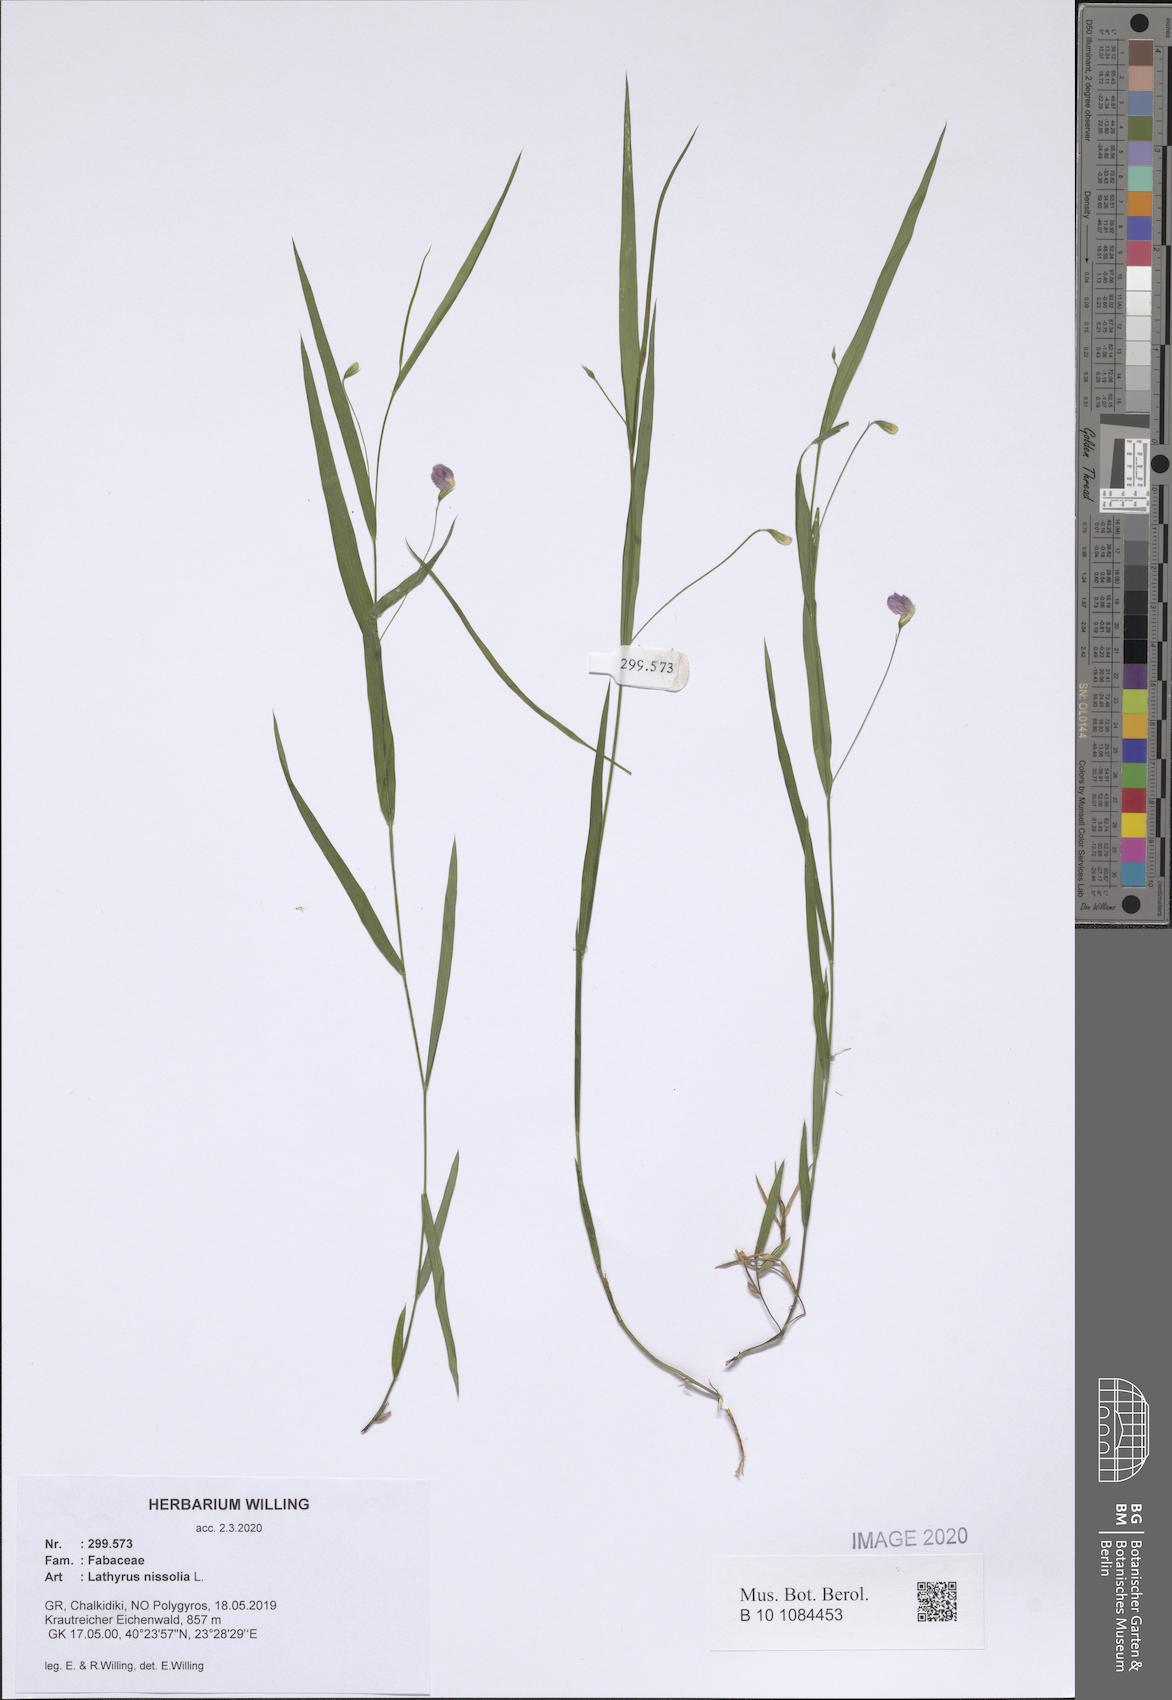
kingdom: Plantae
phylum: Tracheophyta
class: Magnoliopsida
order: Fabales
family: Fabaceae
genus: Lathyrus
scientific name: Lathyrus nissolia
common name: Grass vetchling
